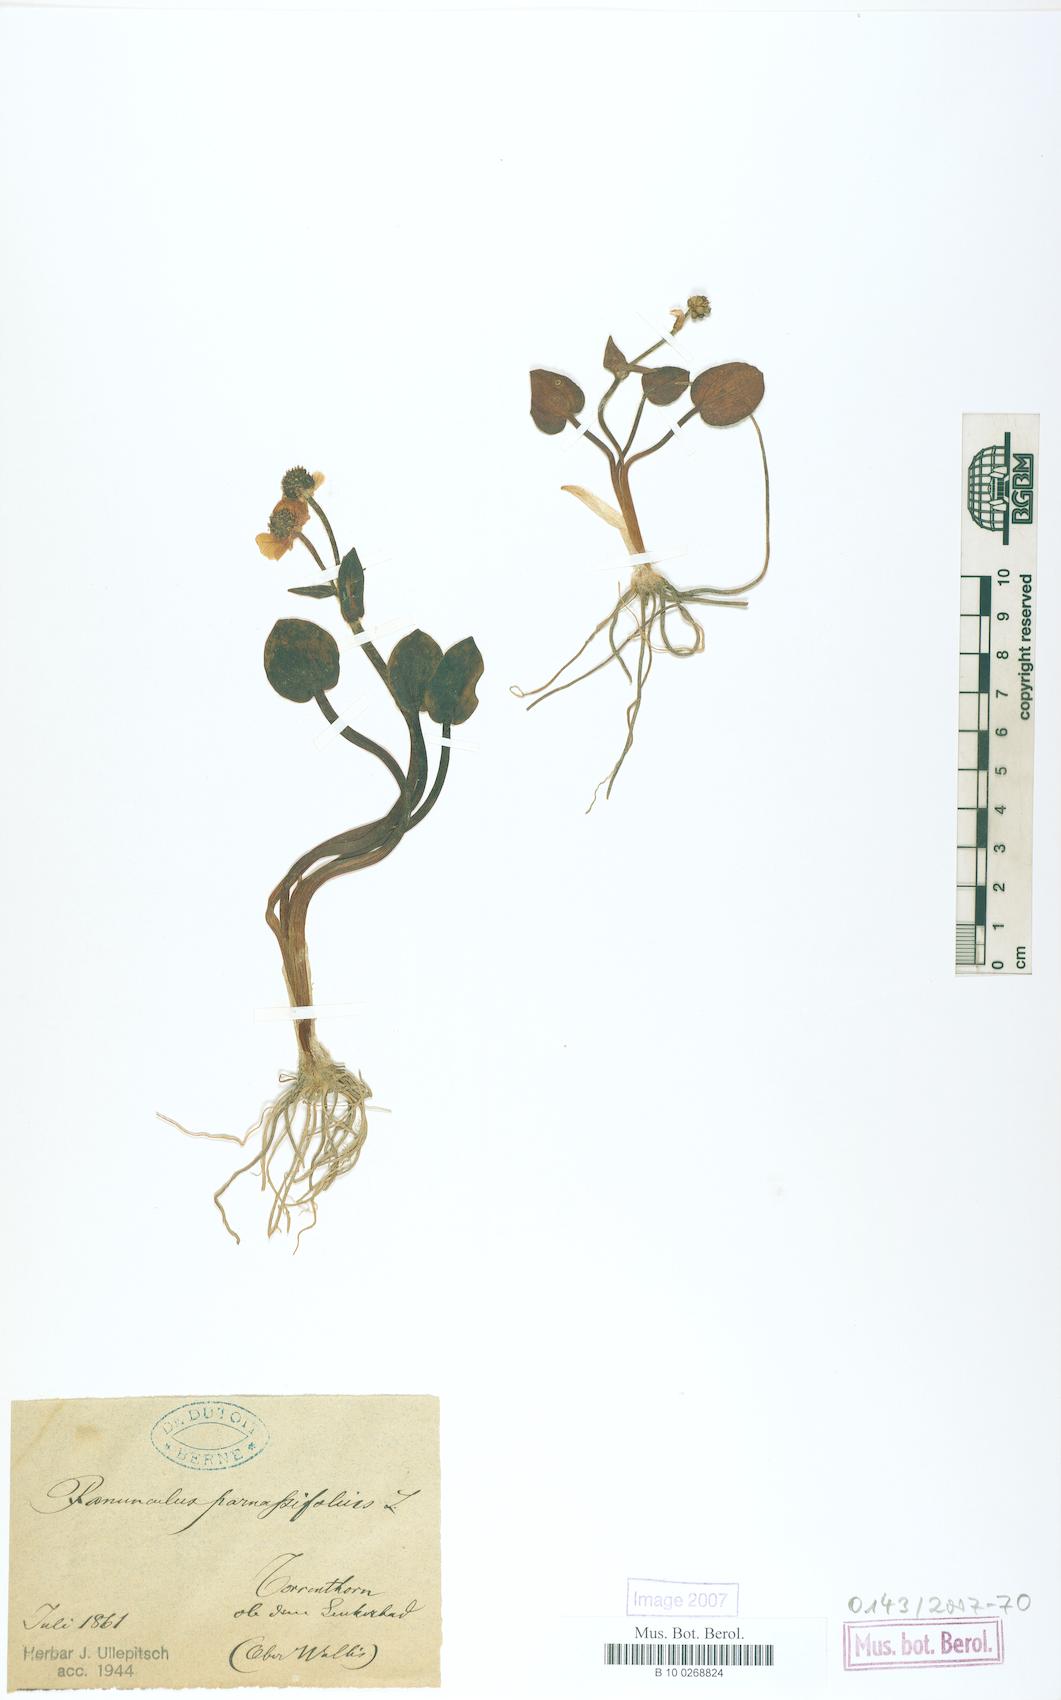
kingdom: Plantae
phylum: Tracheophyta
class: Magnoliopsida
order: Ranunculales
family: Ranunculaceae
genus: Ranunculus
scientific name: Ranunculus parnassiifolius
